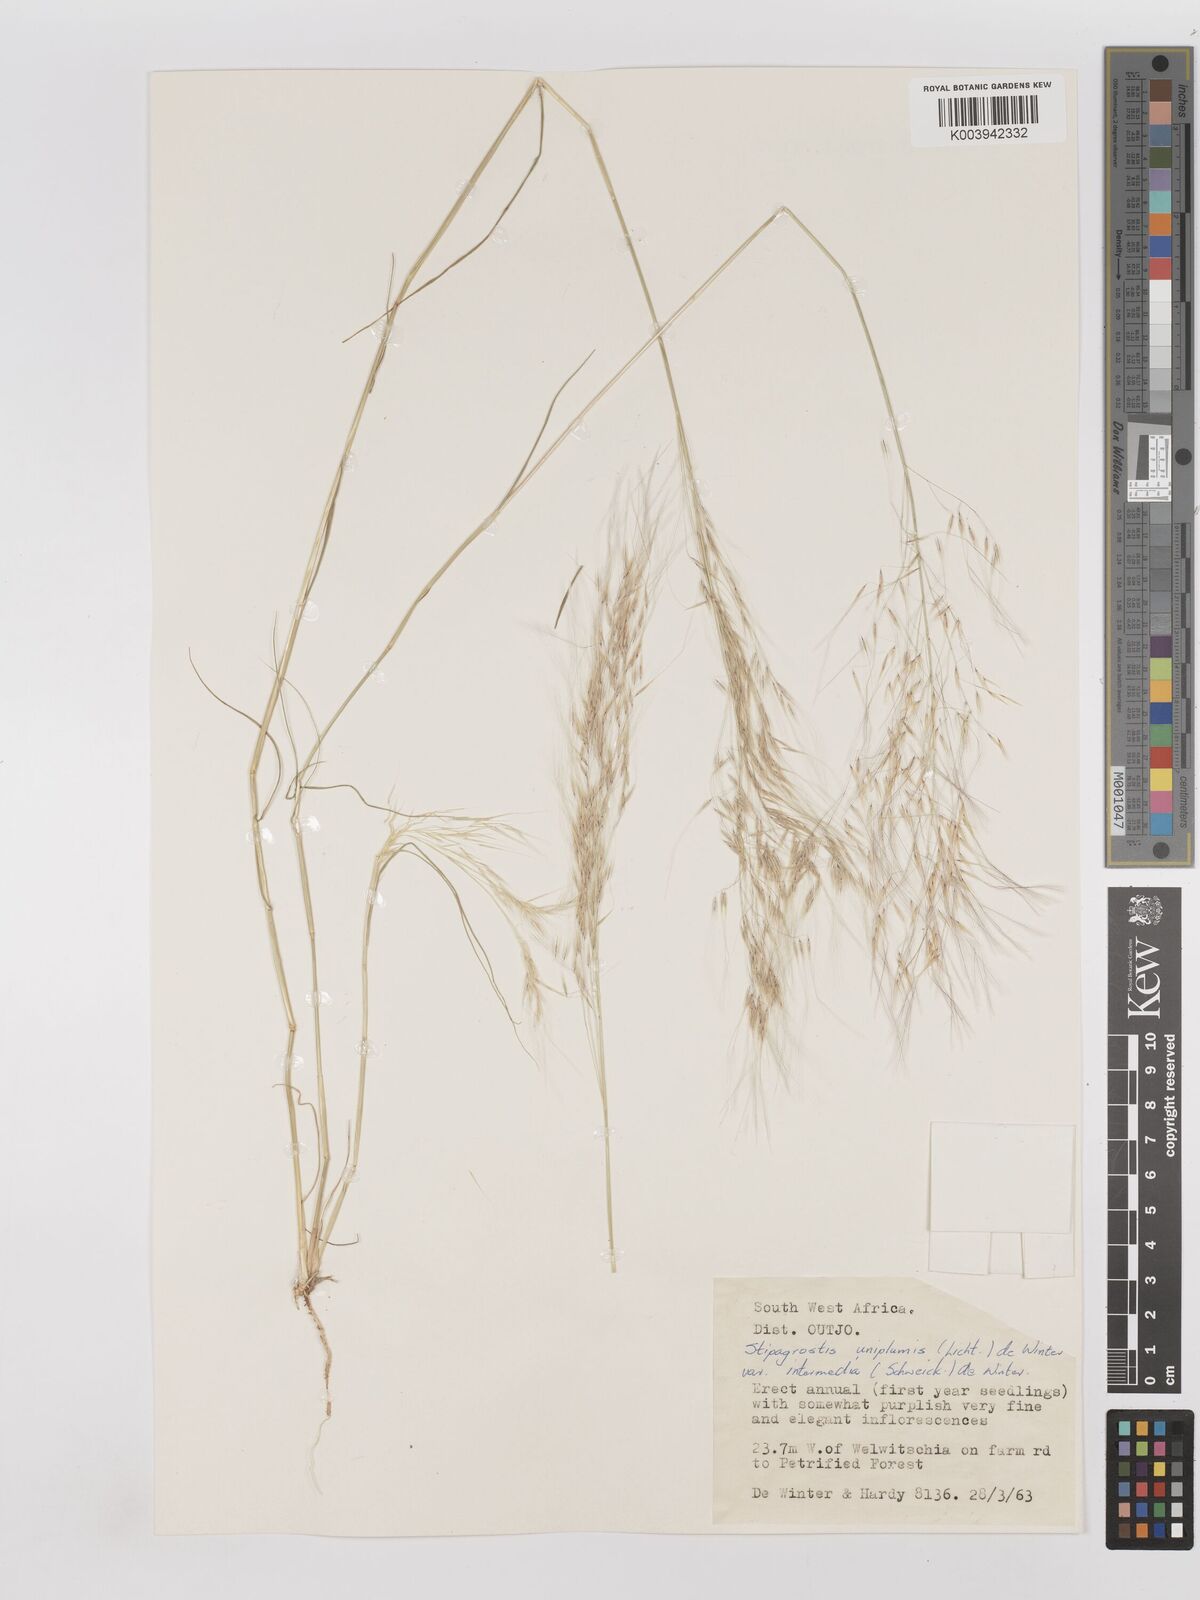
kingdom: Plantae
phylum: Tracheophyta
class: Liliopsida
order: Poales
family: Poaceae
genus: Stipagrostis
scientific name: Stipagrostis uniplumis
